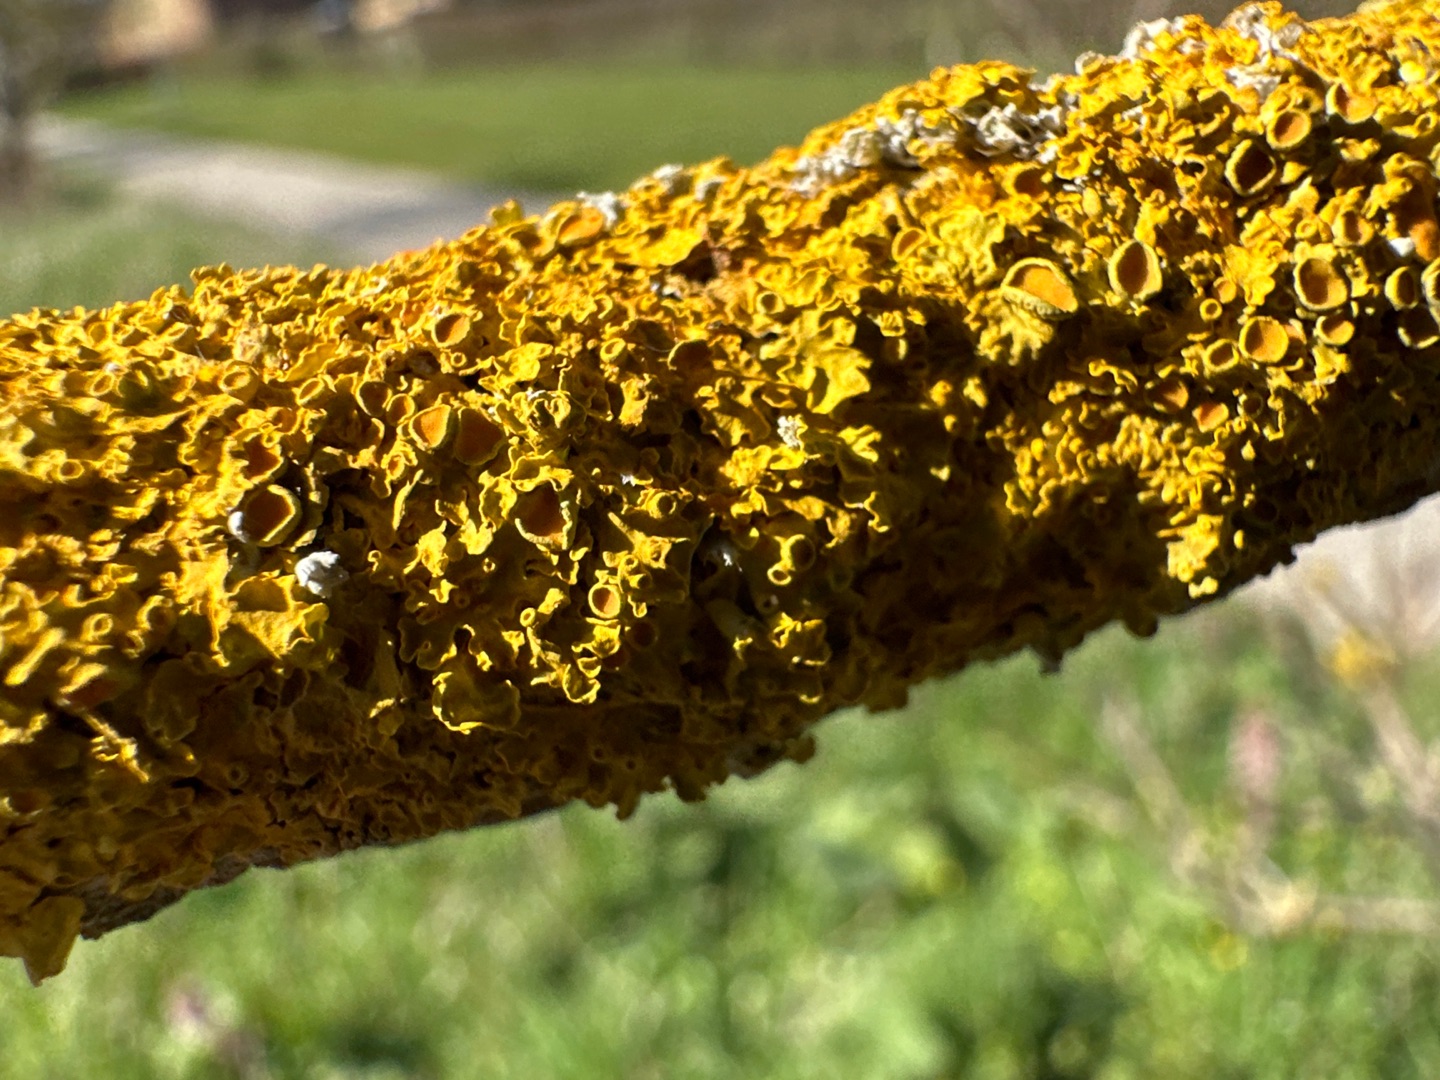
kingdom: Fungi
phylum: Ascomycota
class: Lecanoromycetes
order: Teloschistales
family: Teloschistaceae
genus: Xanthoria
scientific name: Xanthoria parietina
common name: Almindelig væggelav
